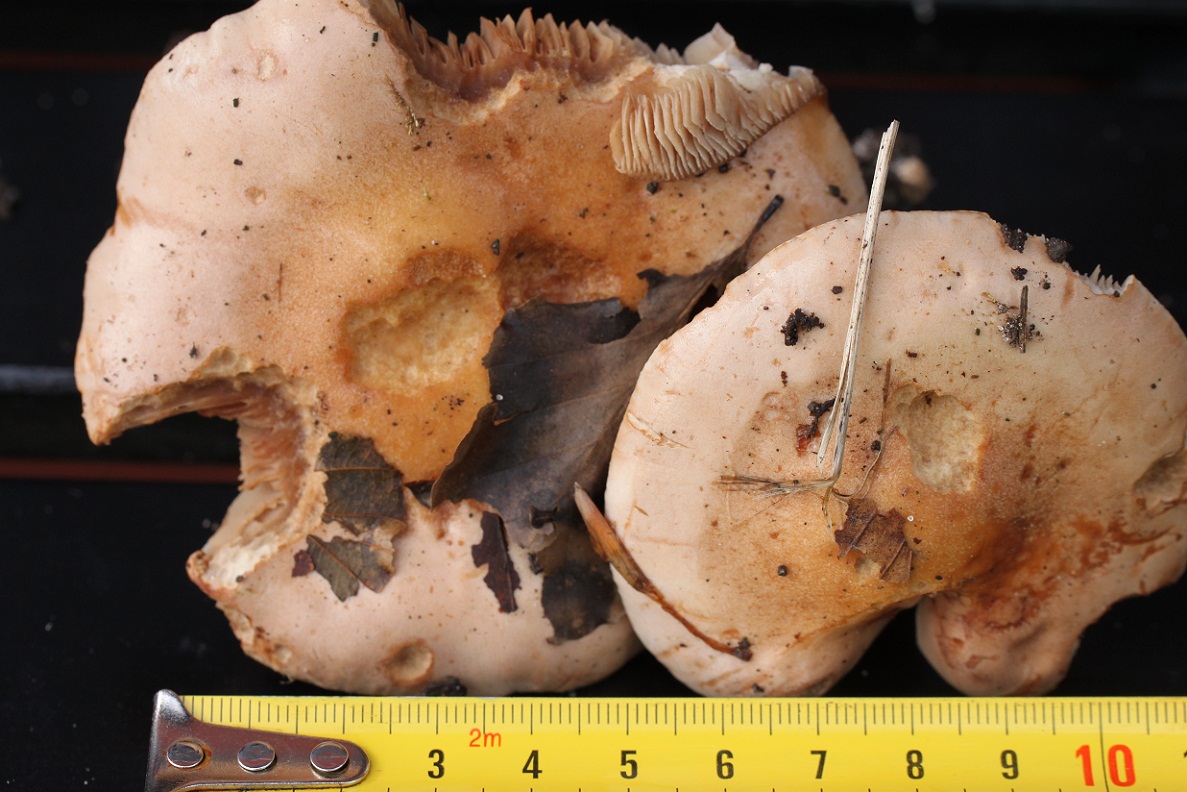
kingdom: Fungi
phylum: Basidiomycota
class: Agaricomycetes
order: Agaricales
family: Hymenogastraceae
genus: Hebeloma
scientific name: Hebeloma sacchariolens
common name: sødtduftende tåreblad
